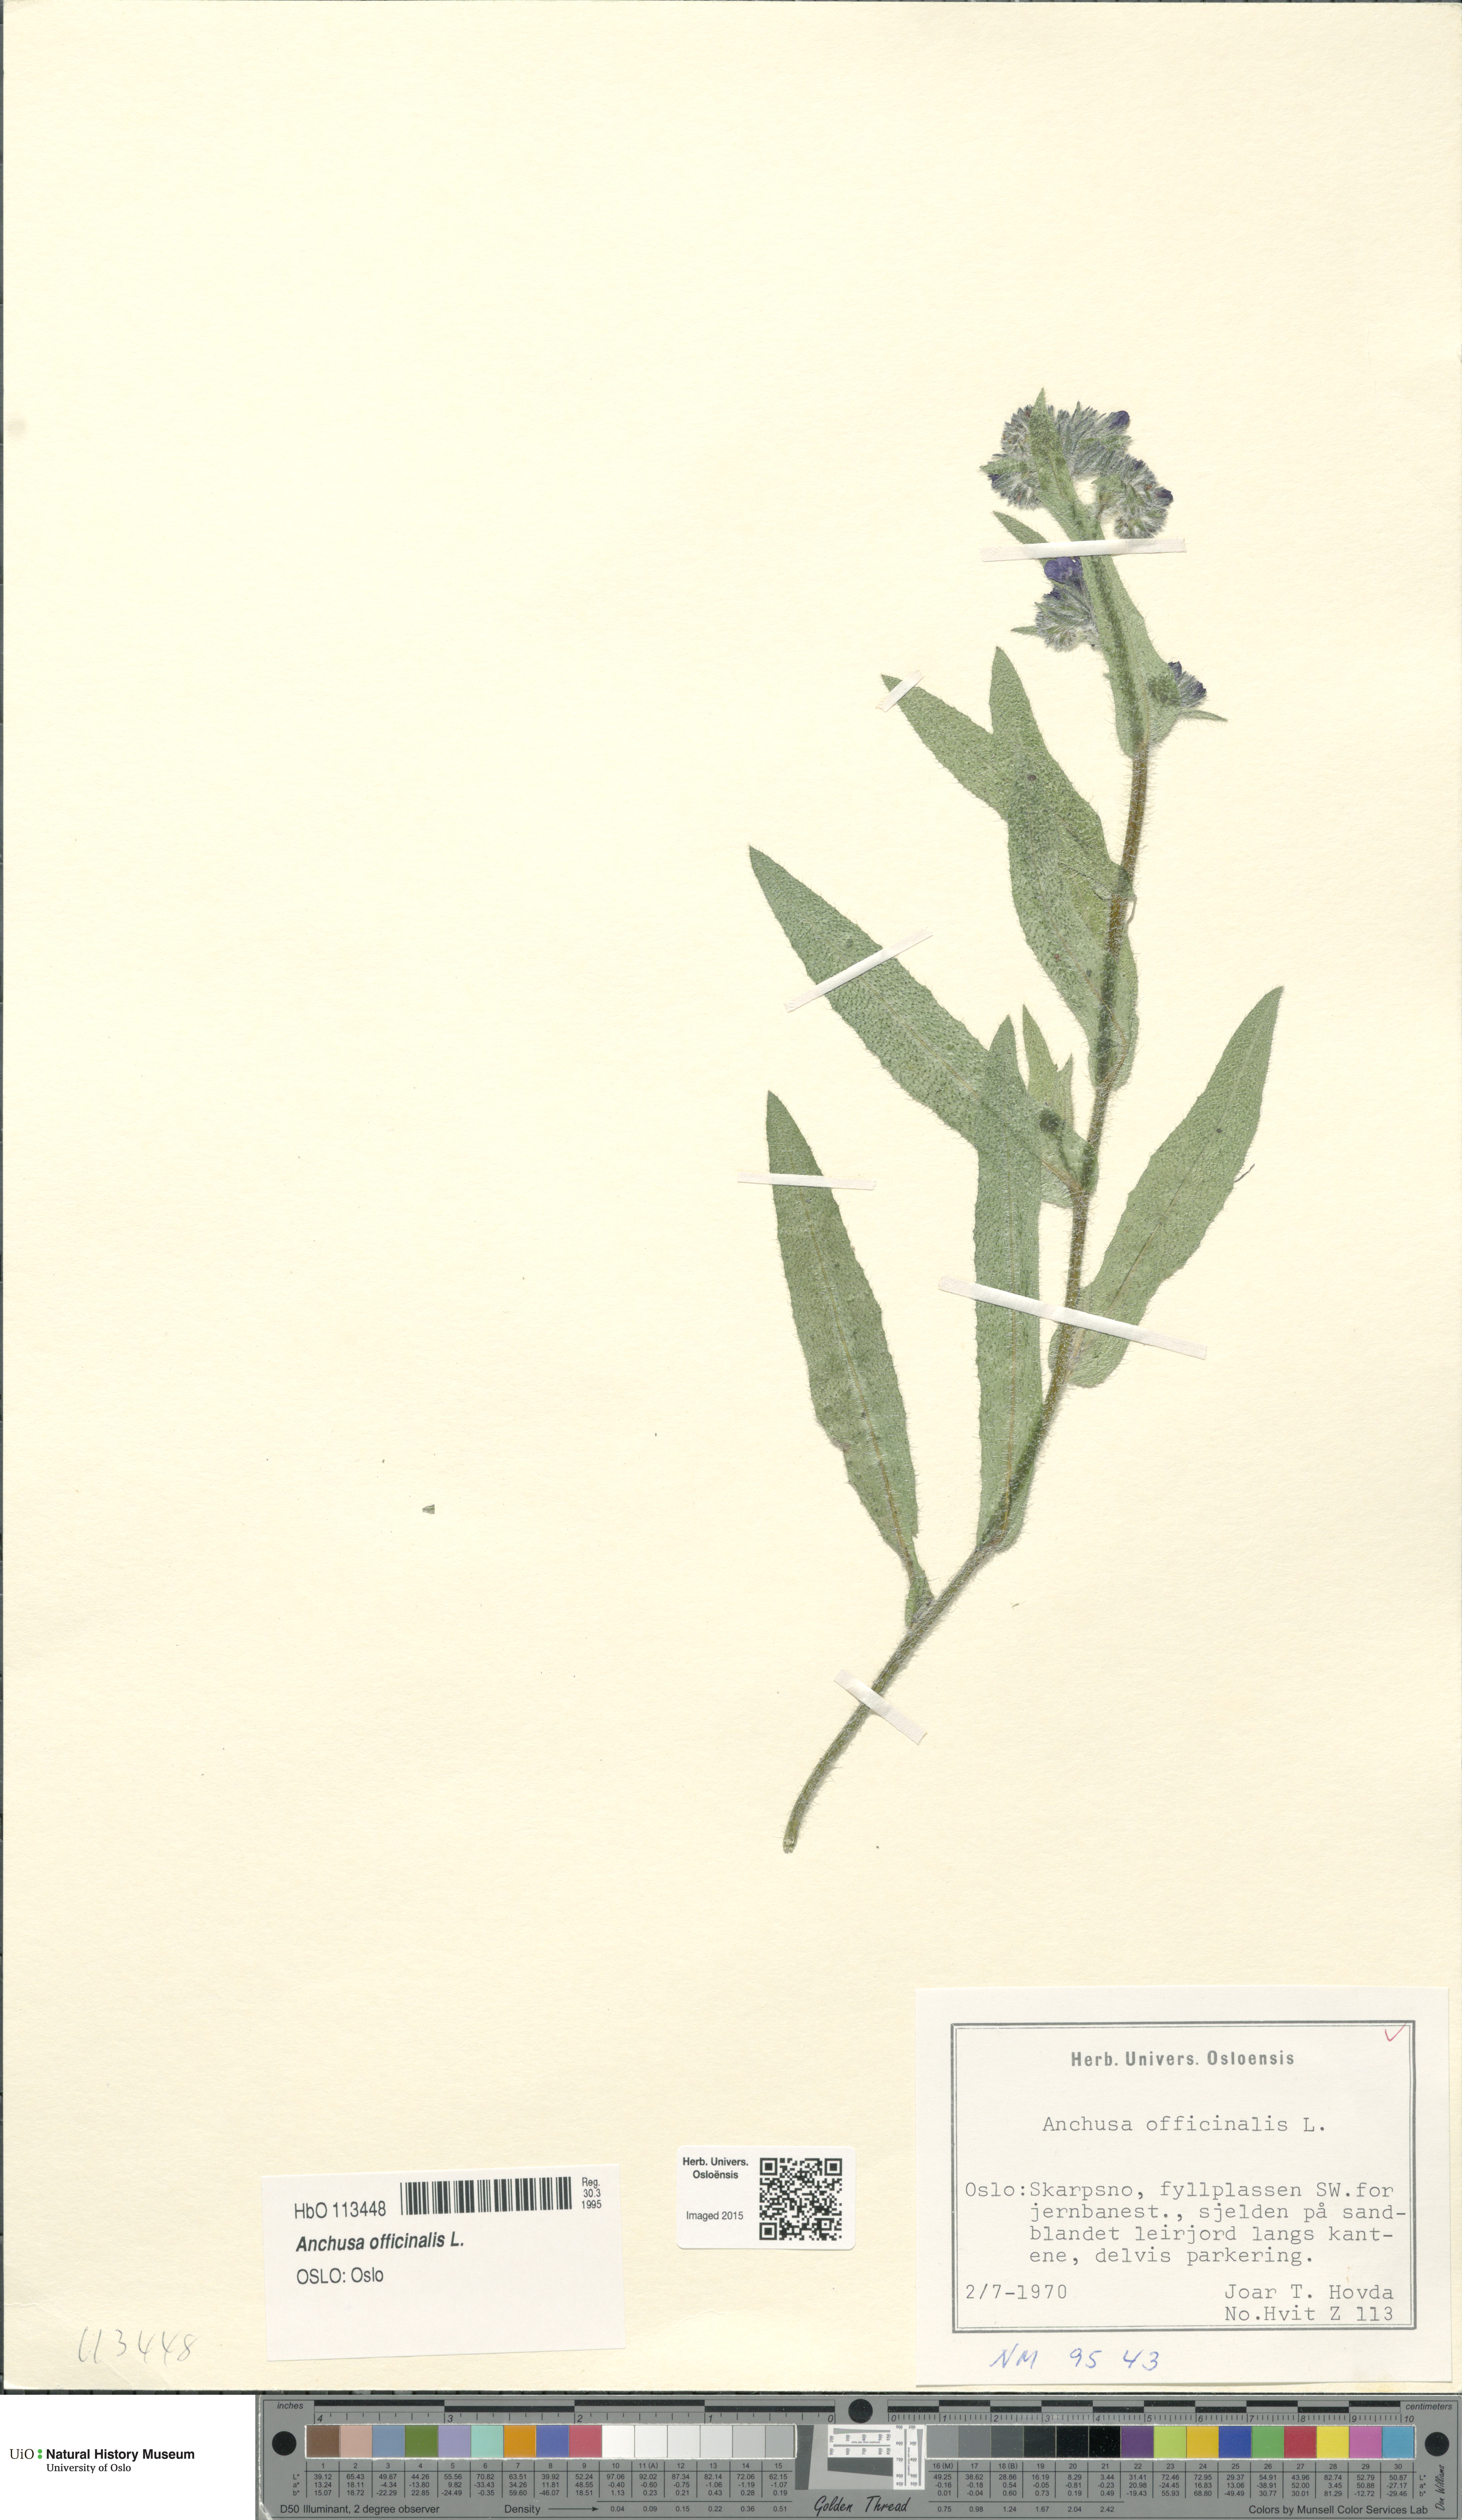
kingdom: Plantae
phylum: Tracheophyta
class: Magnoliopsida
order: Boraginales
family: Boraginaceae
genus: Anchusa
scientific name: Anchusa officinalis
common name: Alkanet
